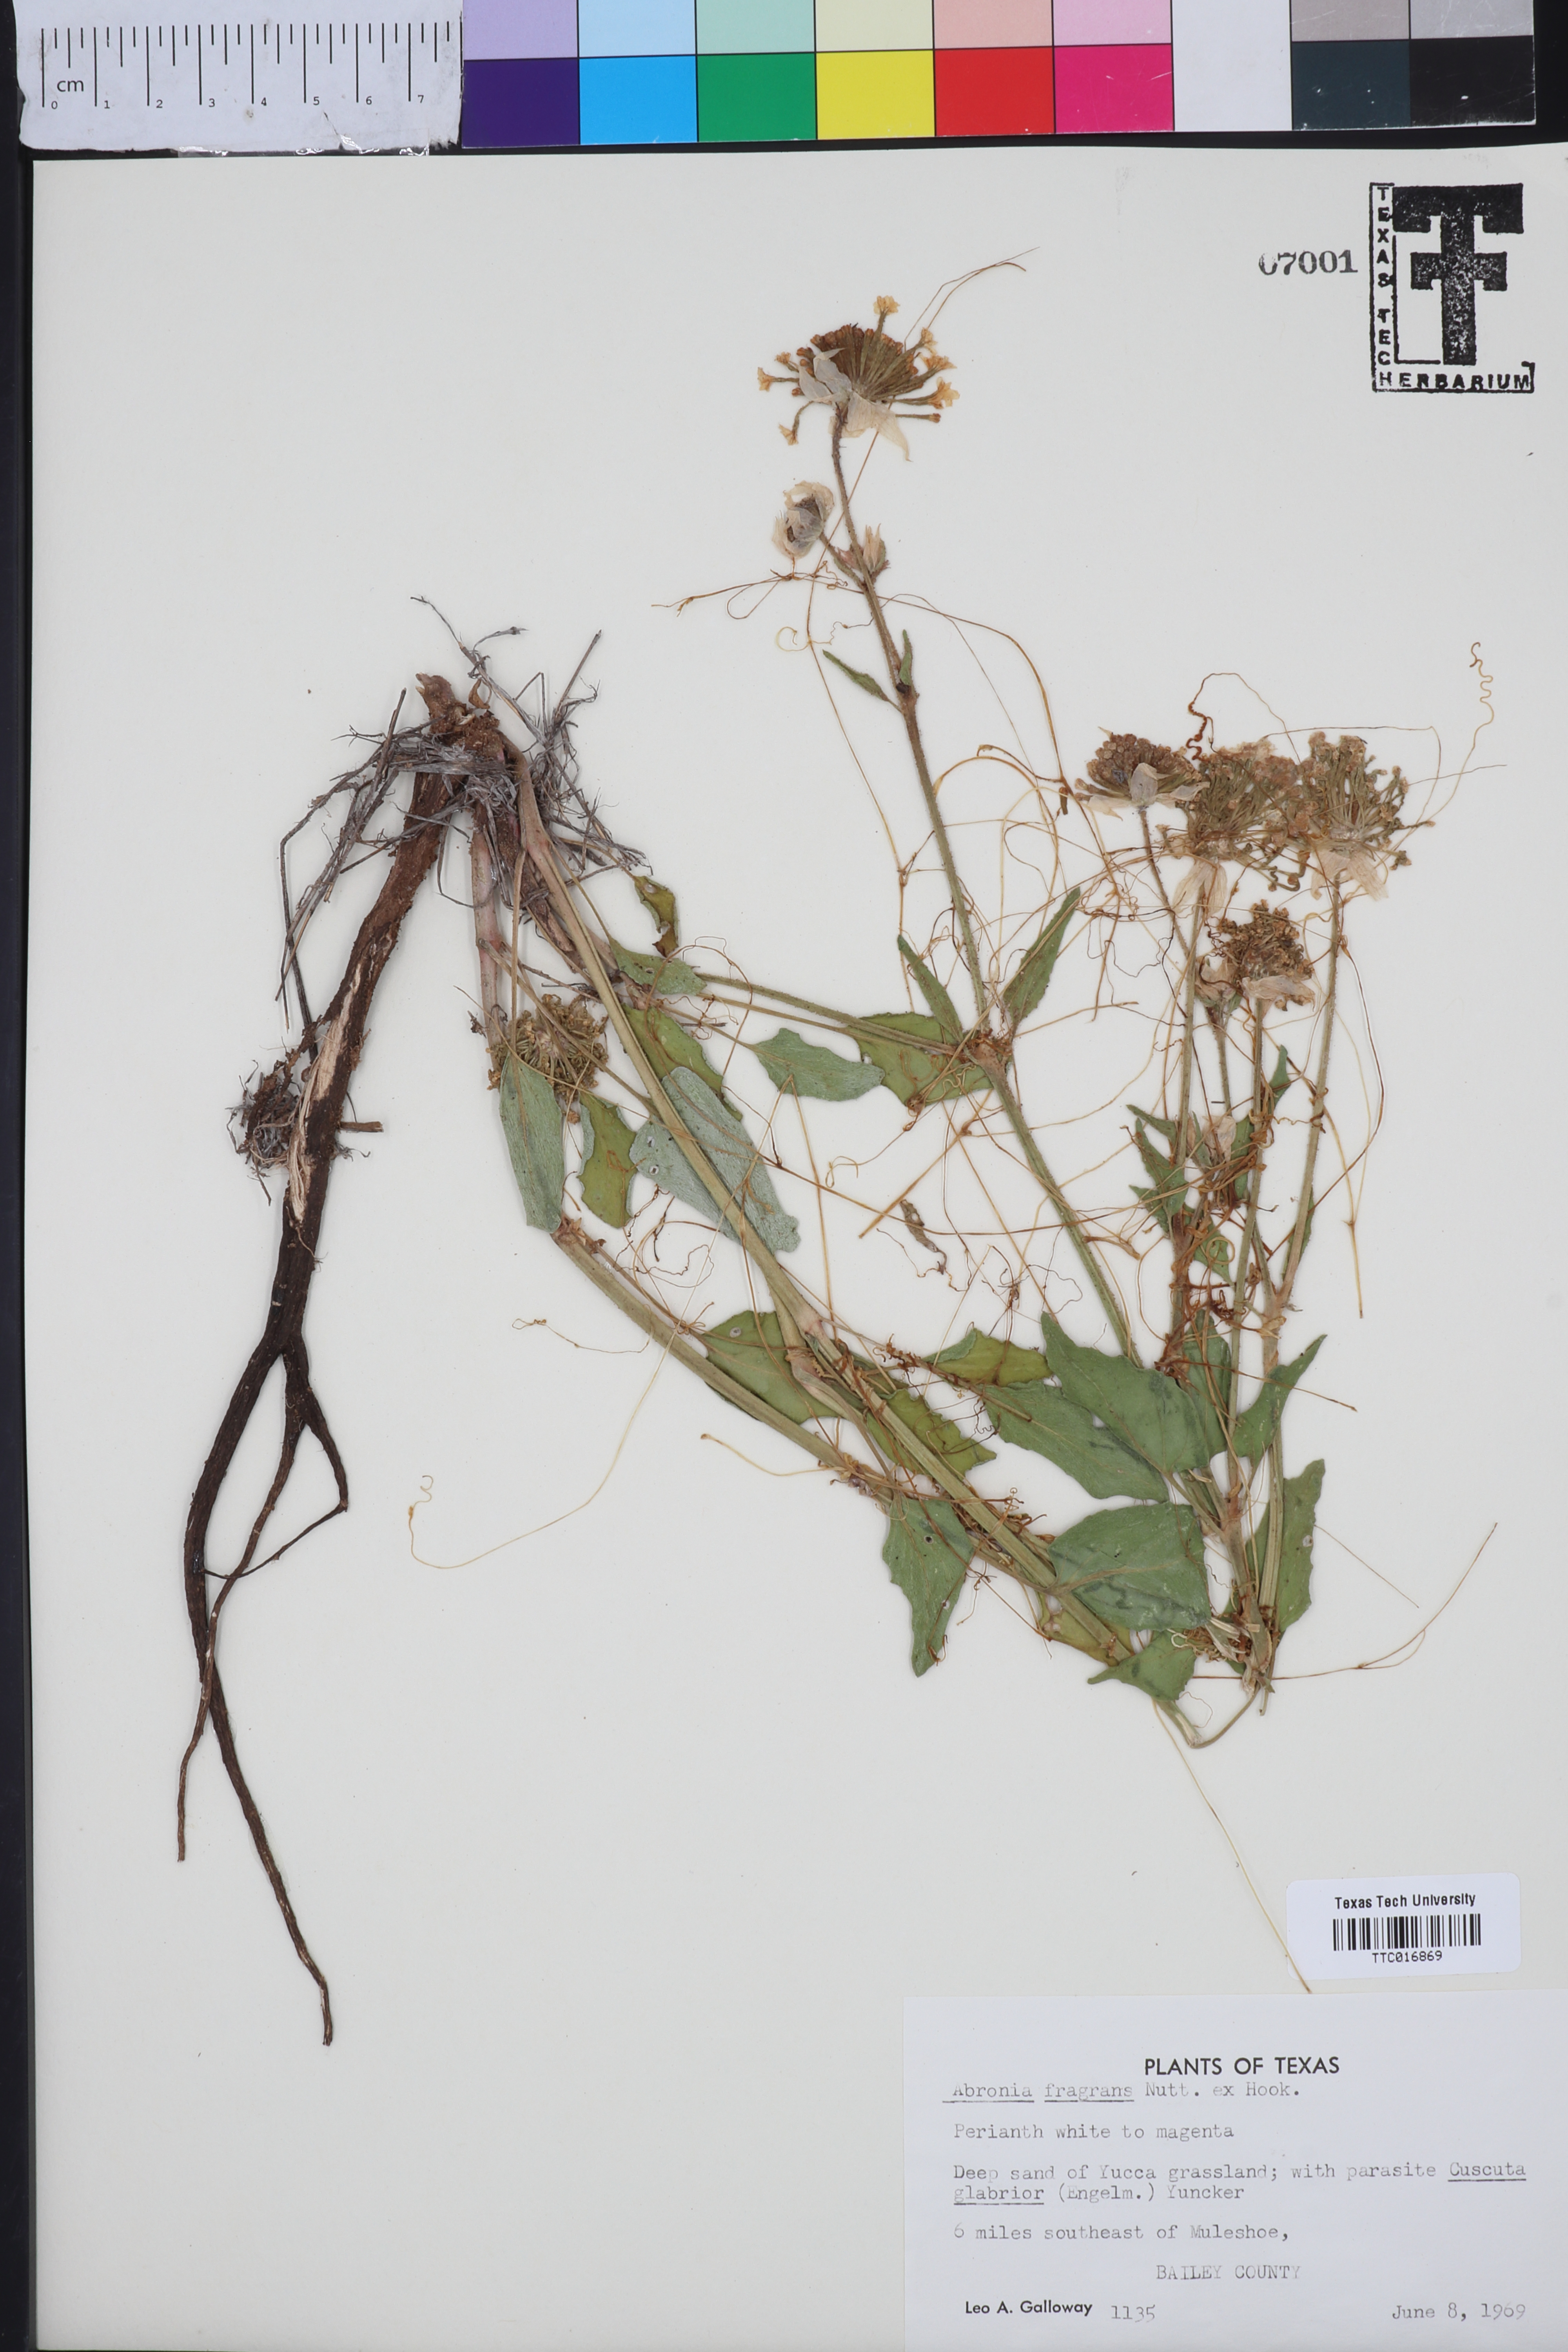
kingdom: Plantae
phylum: Tracheophyta
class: Magnoliopsida
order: Caryophyllales
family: Nyctaginaceae
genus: Abronia
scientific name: Abronia fragrans
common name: Fragrant sand-verbena
